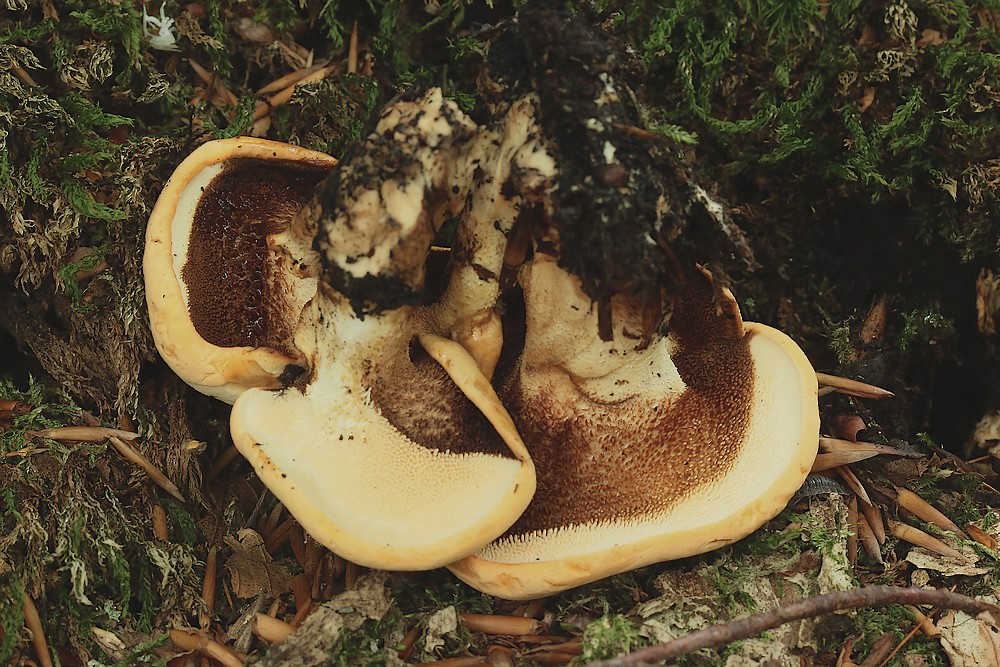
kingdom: Fungi
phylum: Basidiomycota
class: Agaricomycetes
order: Cantharellales
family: Hydnaceae
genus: Hydnum
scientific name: Hydnum
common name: pigsvamp
